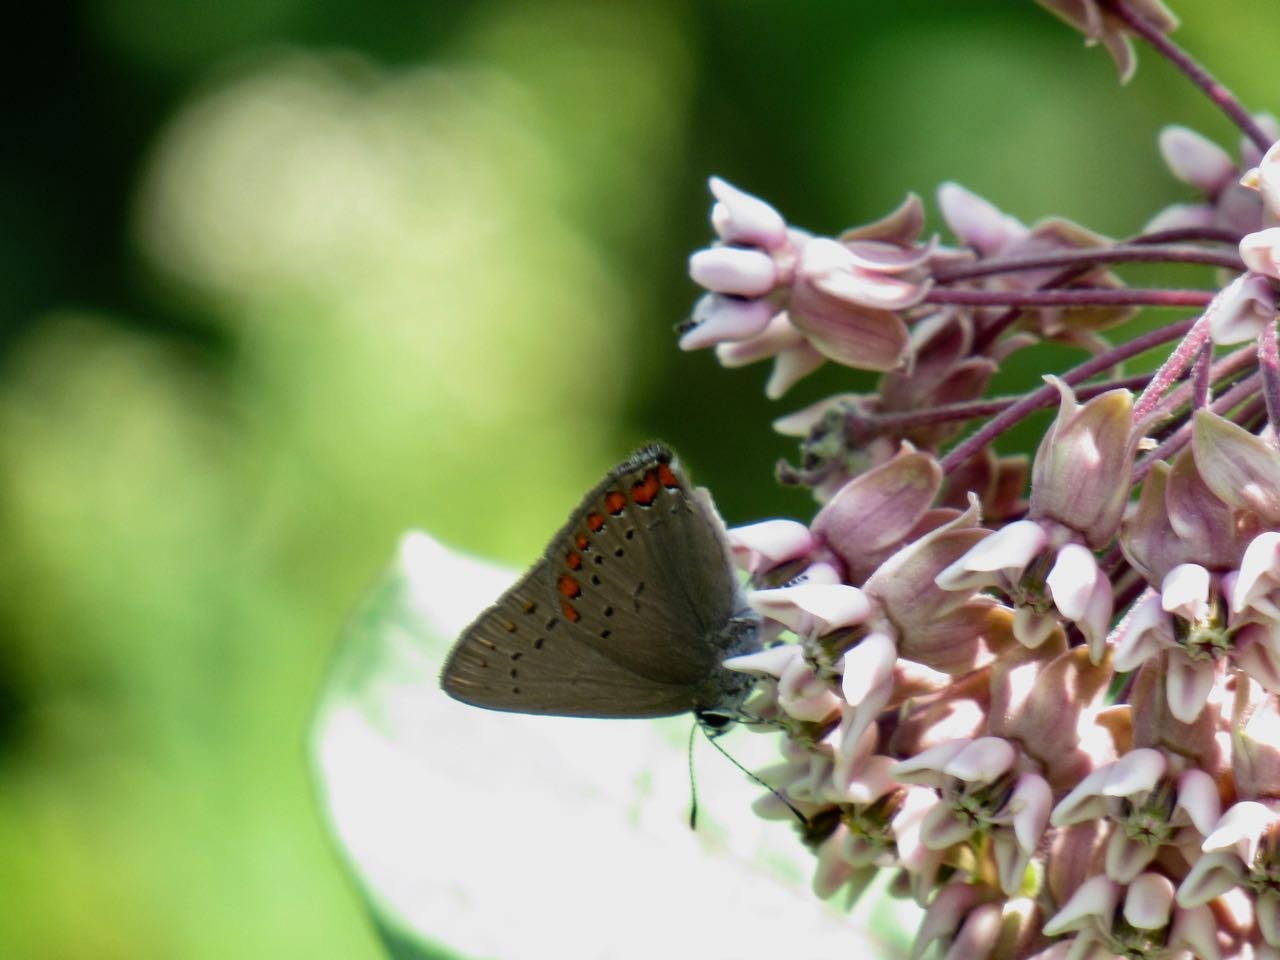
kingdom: Animalia
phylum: Arthropoda
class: Insecta
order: Lepidoptera
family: Lycaenidae
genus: Harkenclenus
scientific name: Harkenclenus titus
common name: Coral Hairstreak
